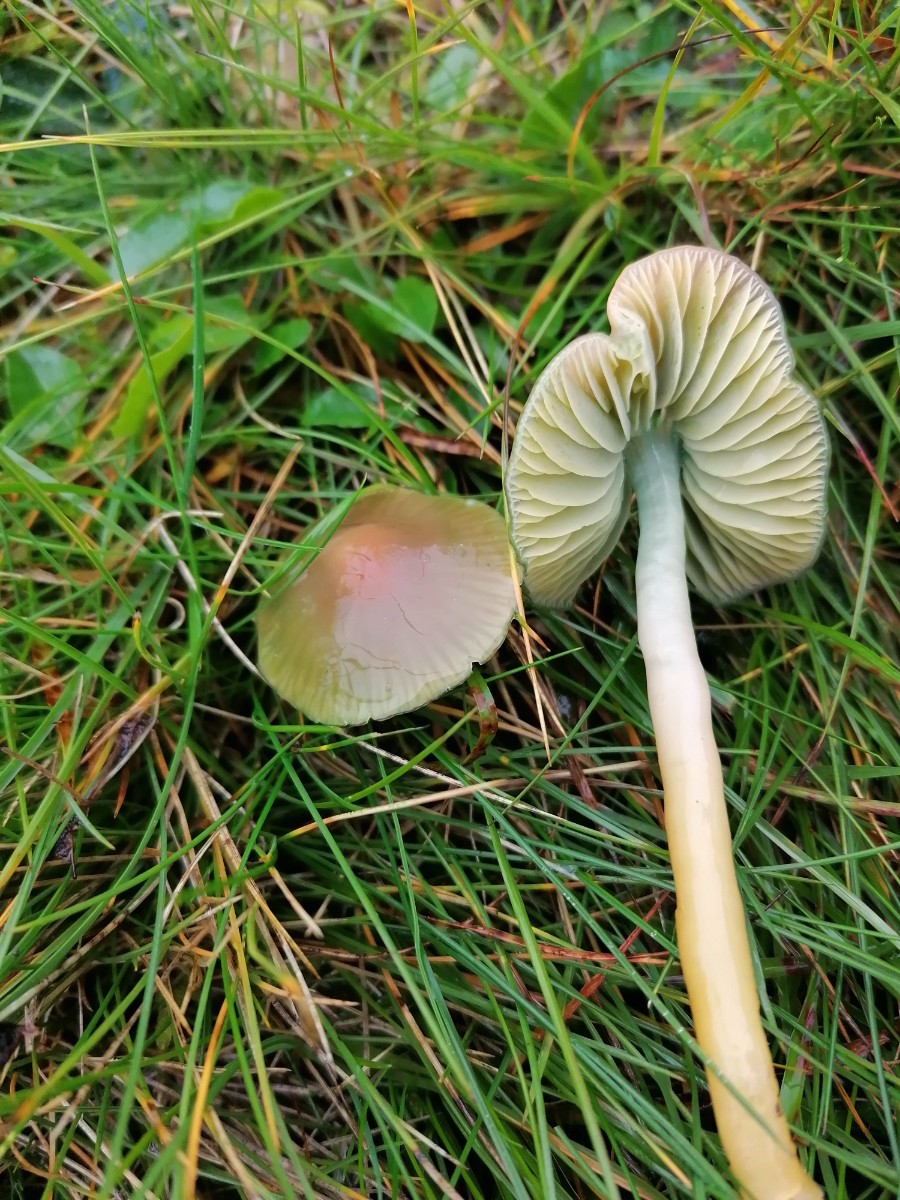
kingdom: Fungi
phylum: Basidiomycota
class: Agaricomycetes
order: Agaricales
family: Hygrophoraceae
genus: Gliophorus
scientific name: Gliophorus psittacinus
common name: papegøje-vokshat
